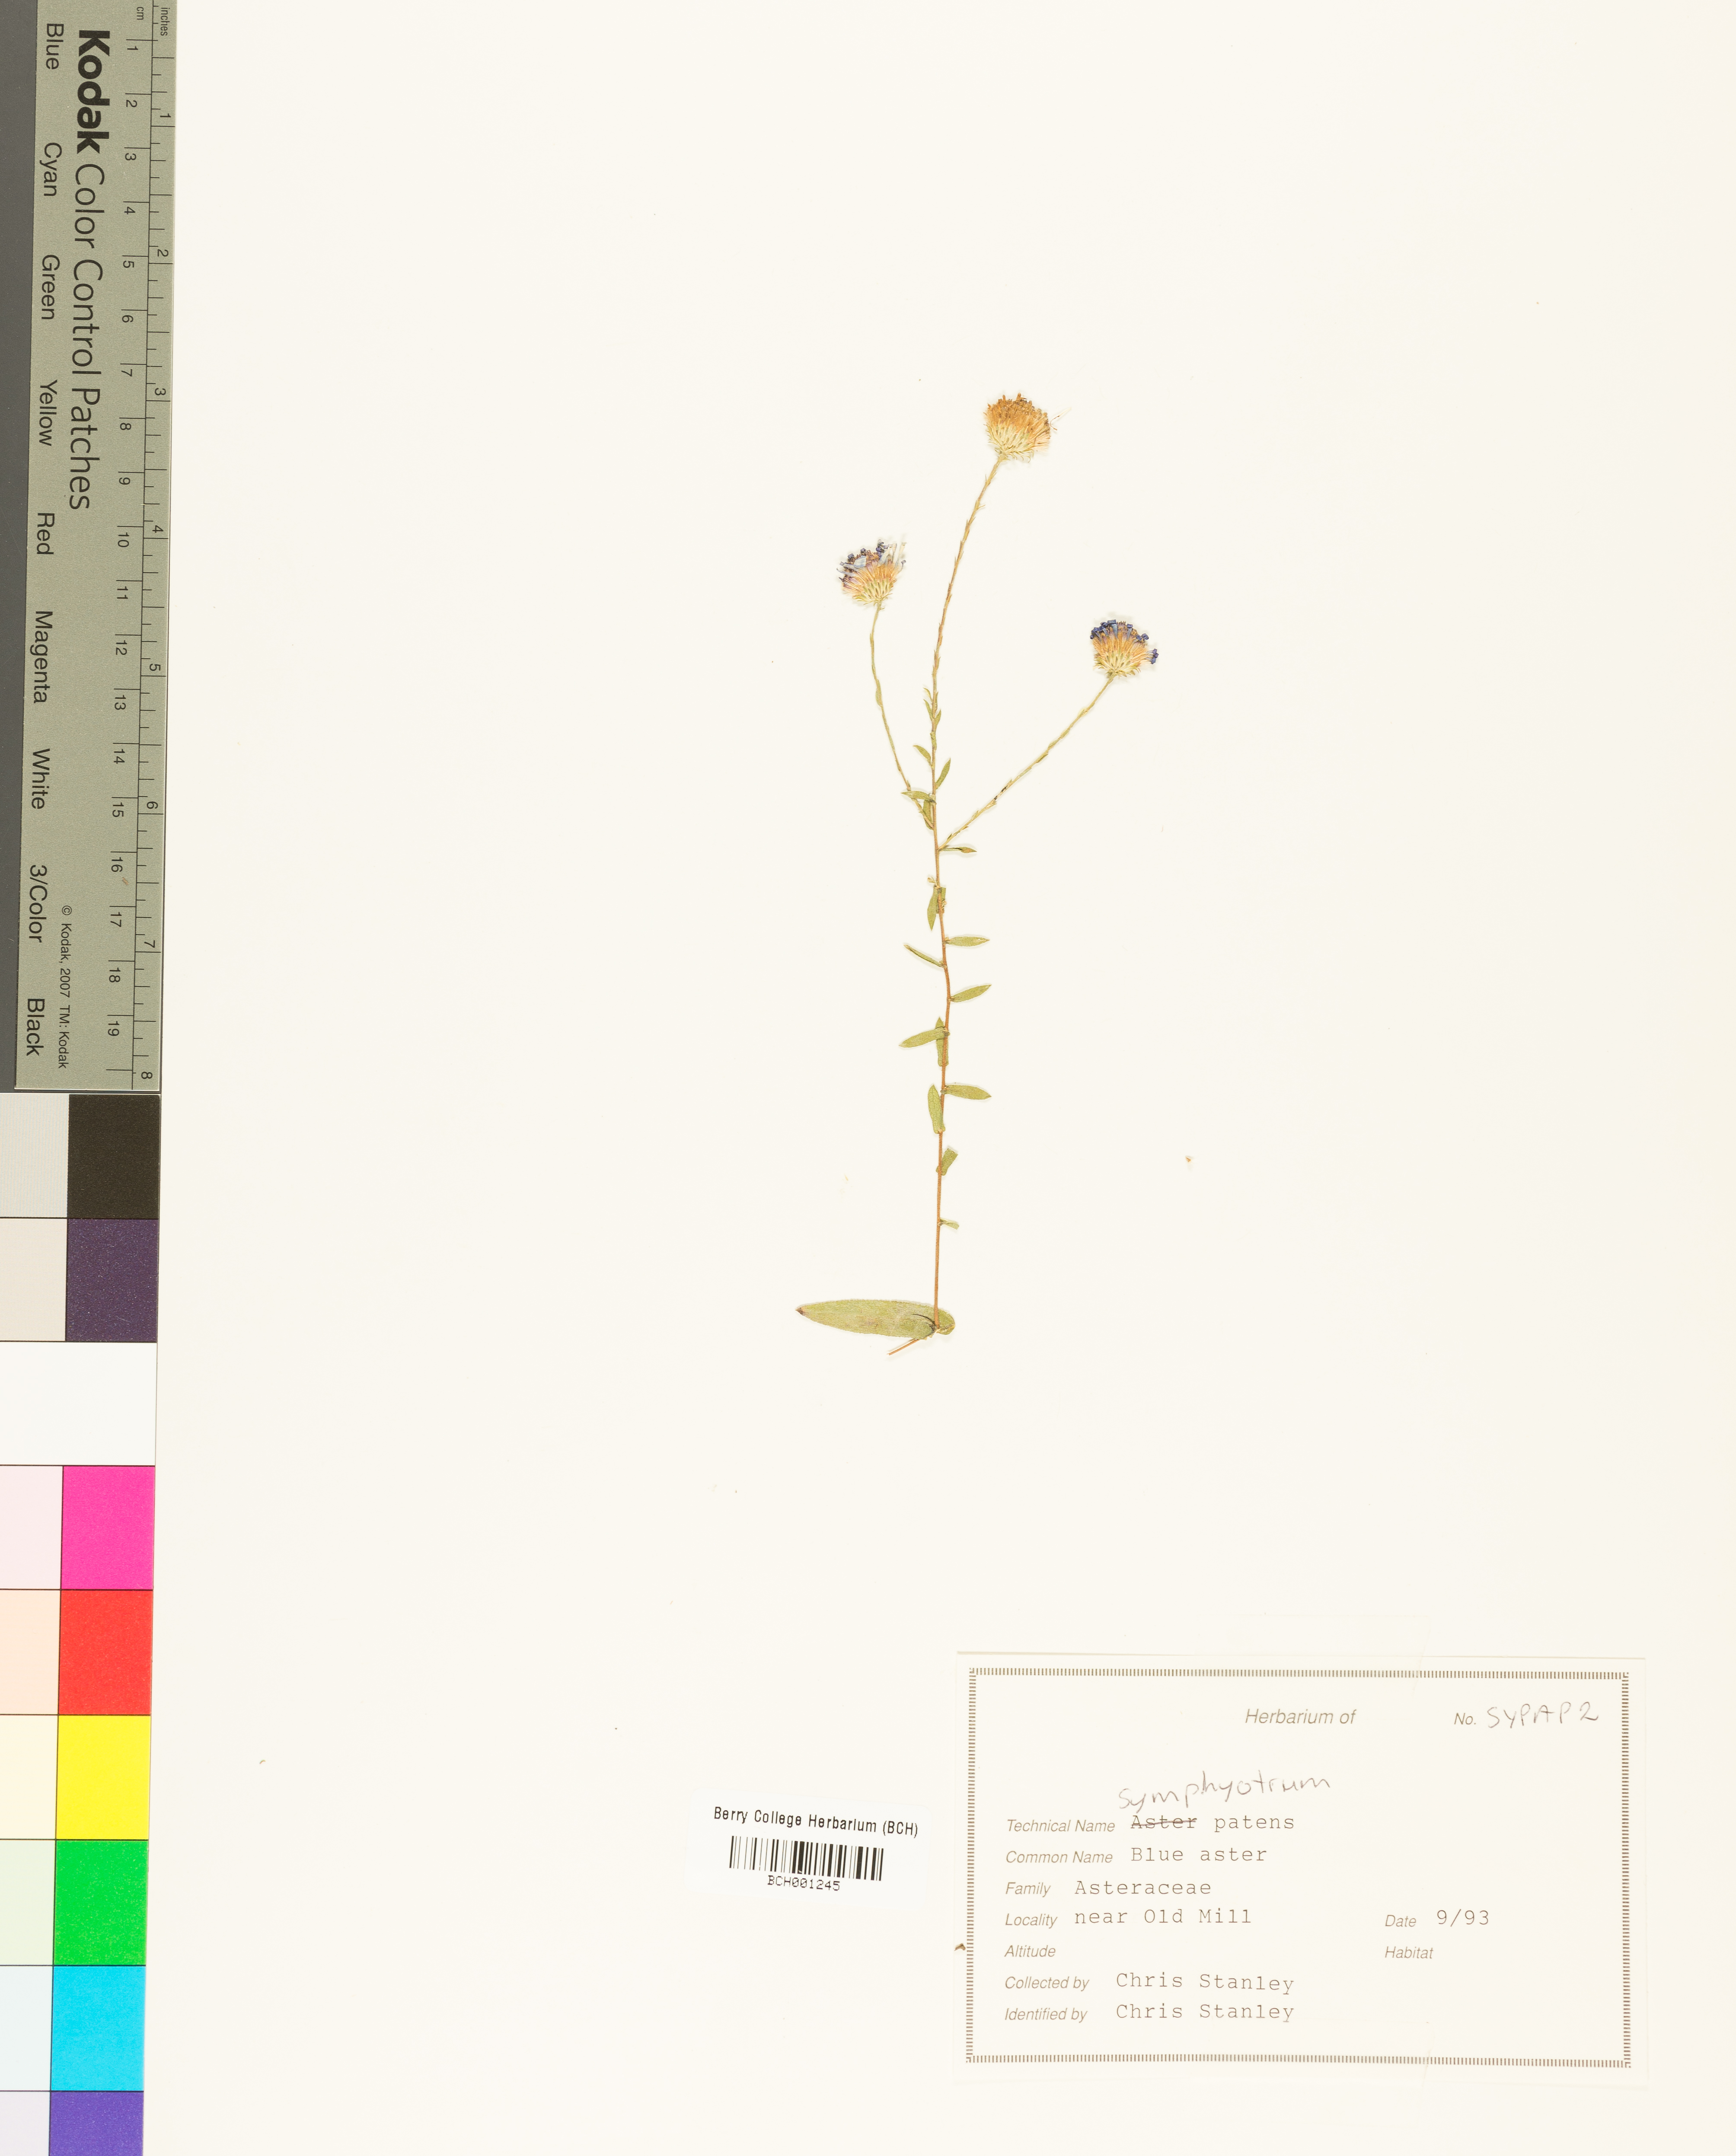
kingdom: Plantae
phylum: Tracheophyta
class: Magnoliopsida
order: Asterales
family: Asteraceae
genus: Symphyotrichum
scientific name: Symphyotrichum patens
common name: Late purple aster
